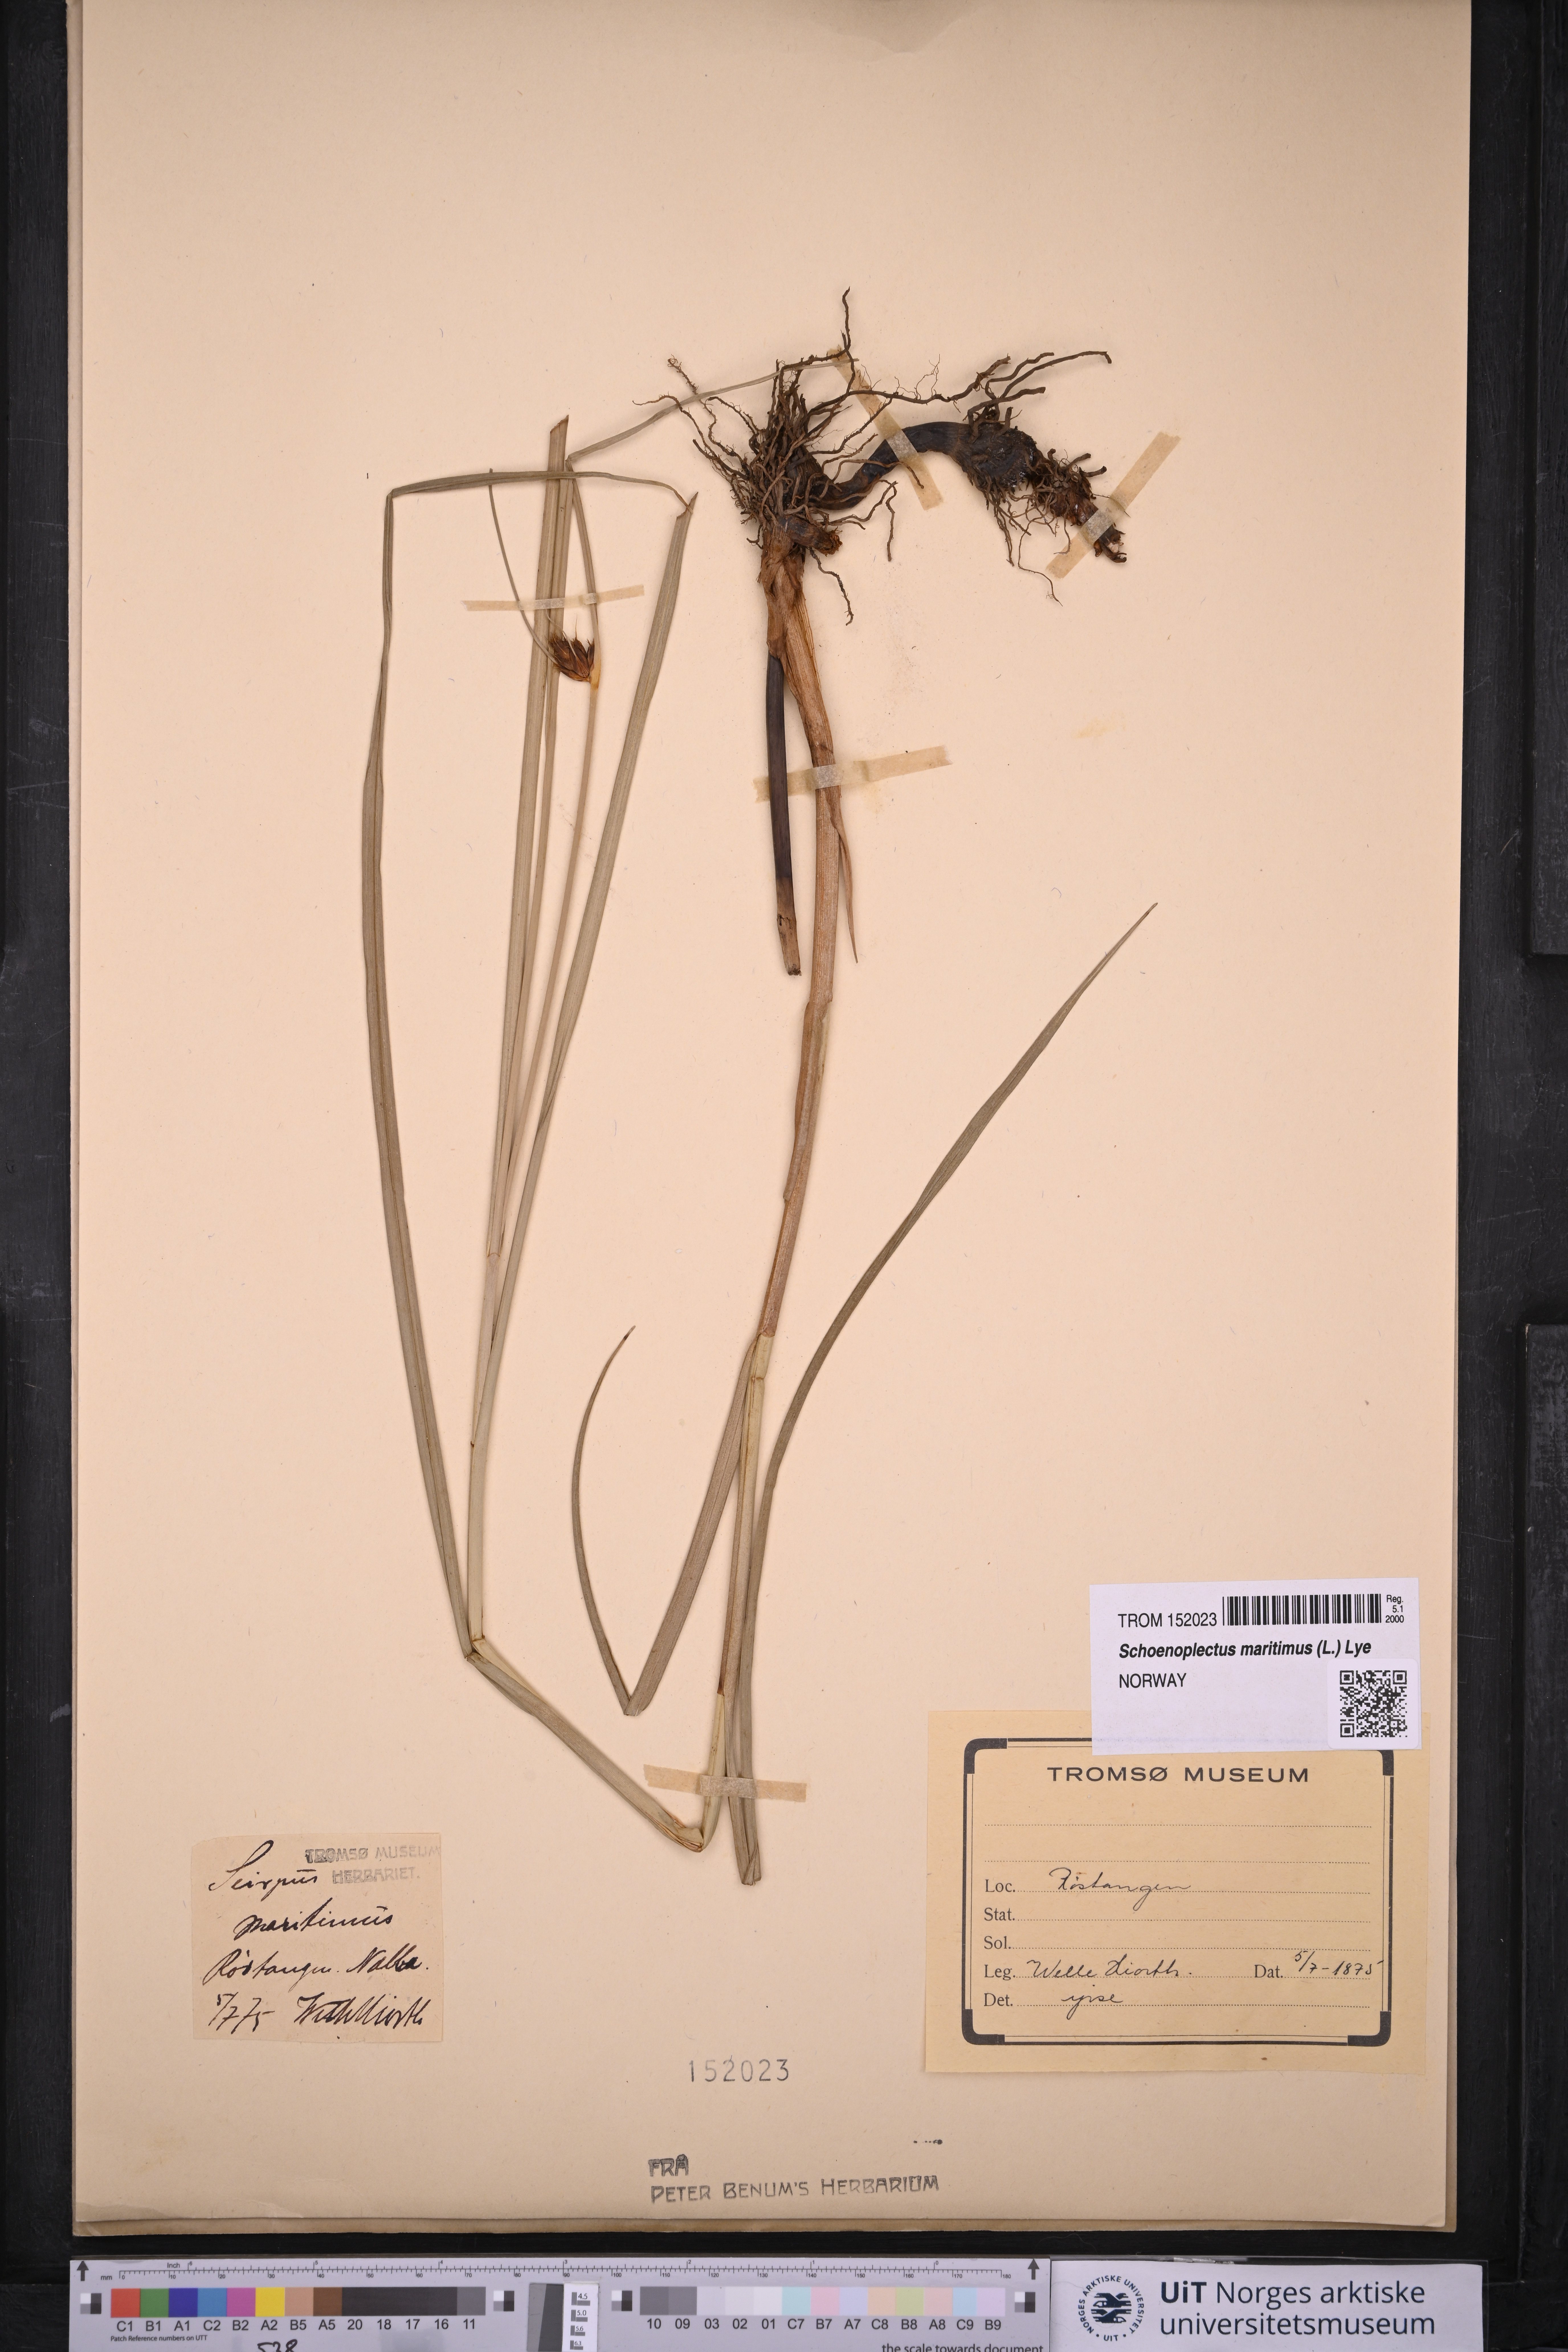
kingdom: Plantae
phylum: Tracheophyta
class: Liliopsida
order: Poales
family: Cyperaceae
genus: Bolboschoenus
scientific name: Bolboschoenus maritimus
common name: Sea club-rush
